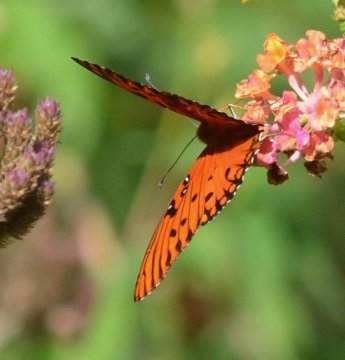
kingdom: Animalia
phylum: Arthropoda
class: Insecta
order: Lepidoptera
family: Nymphalidae
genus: Dione
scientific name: Dione vanillae
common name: Gulf Fritillary
